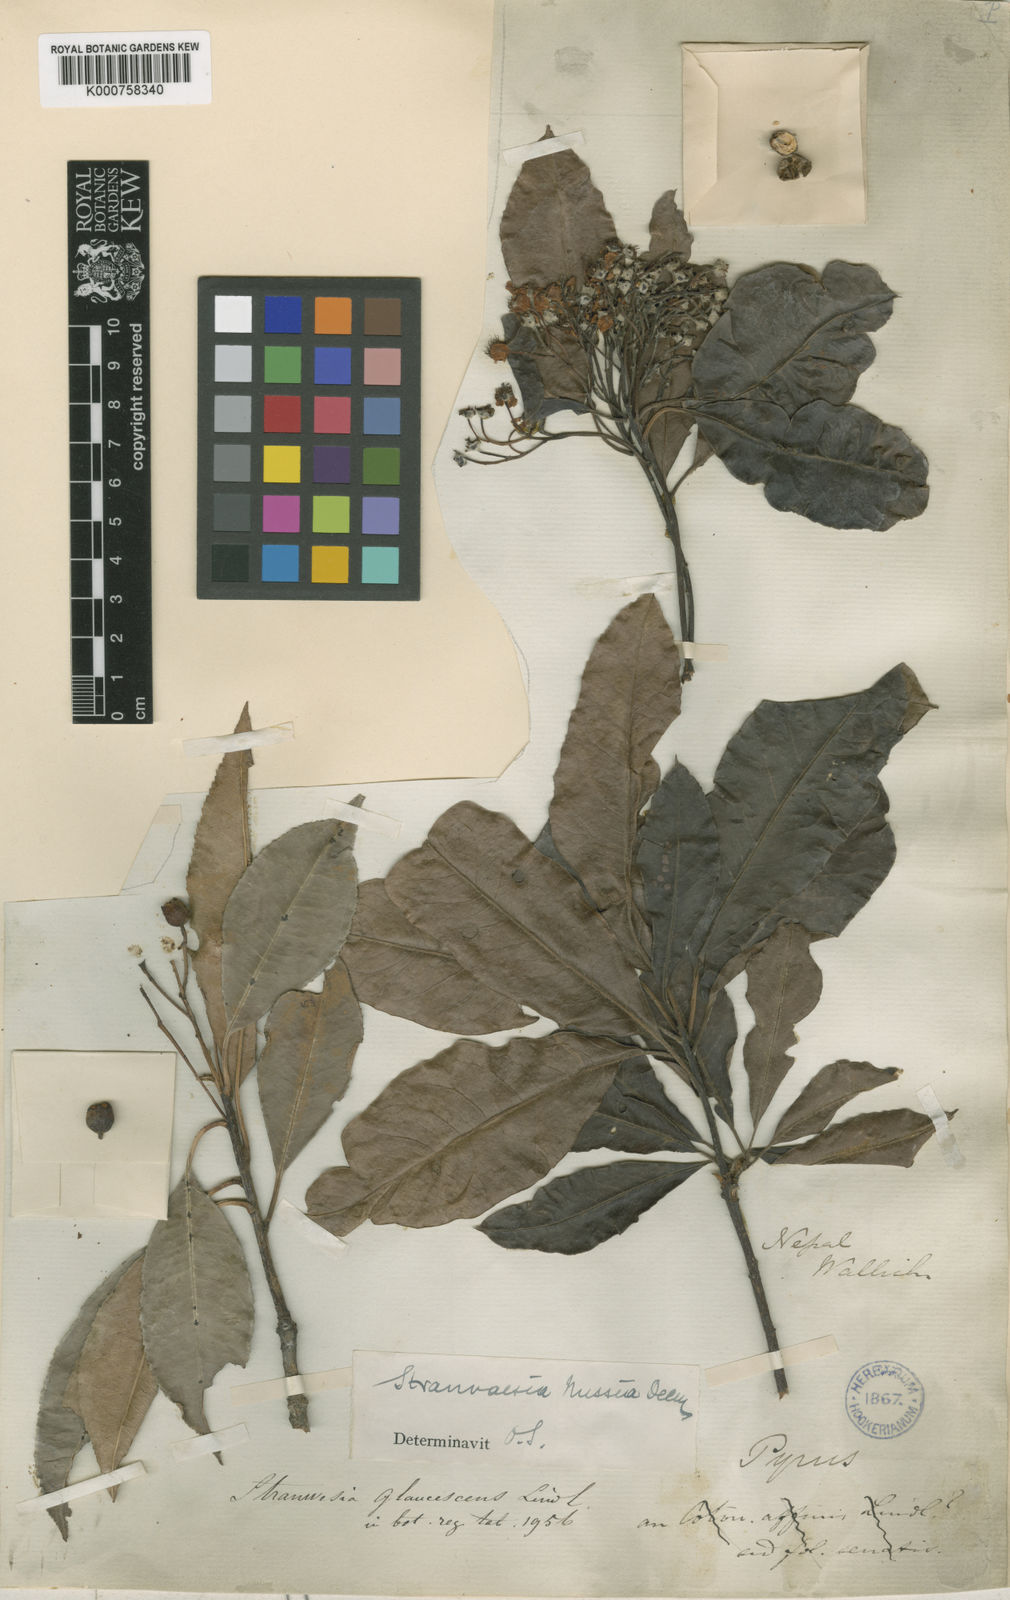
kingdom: Plantae
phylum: Tracheophyta
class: Magnoliopsida
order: Rosales
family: Rosaceae
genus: Stranvaesia
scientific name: Stranvaesia nussia
